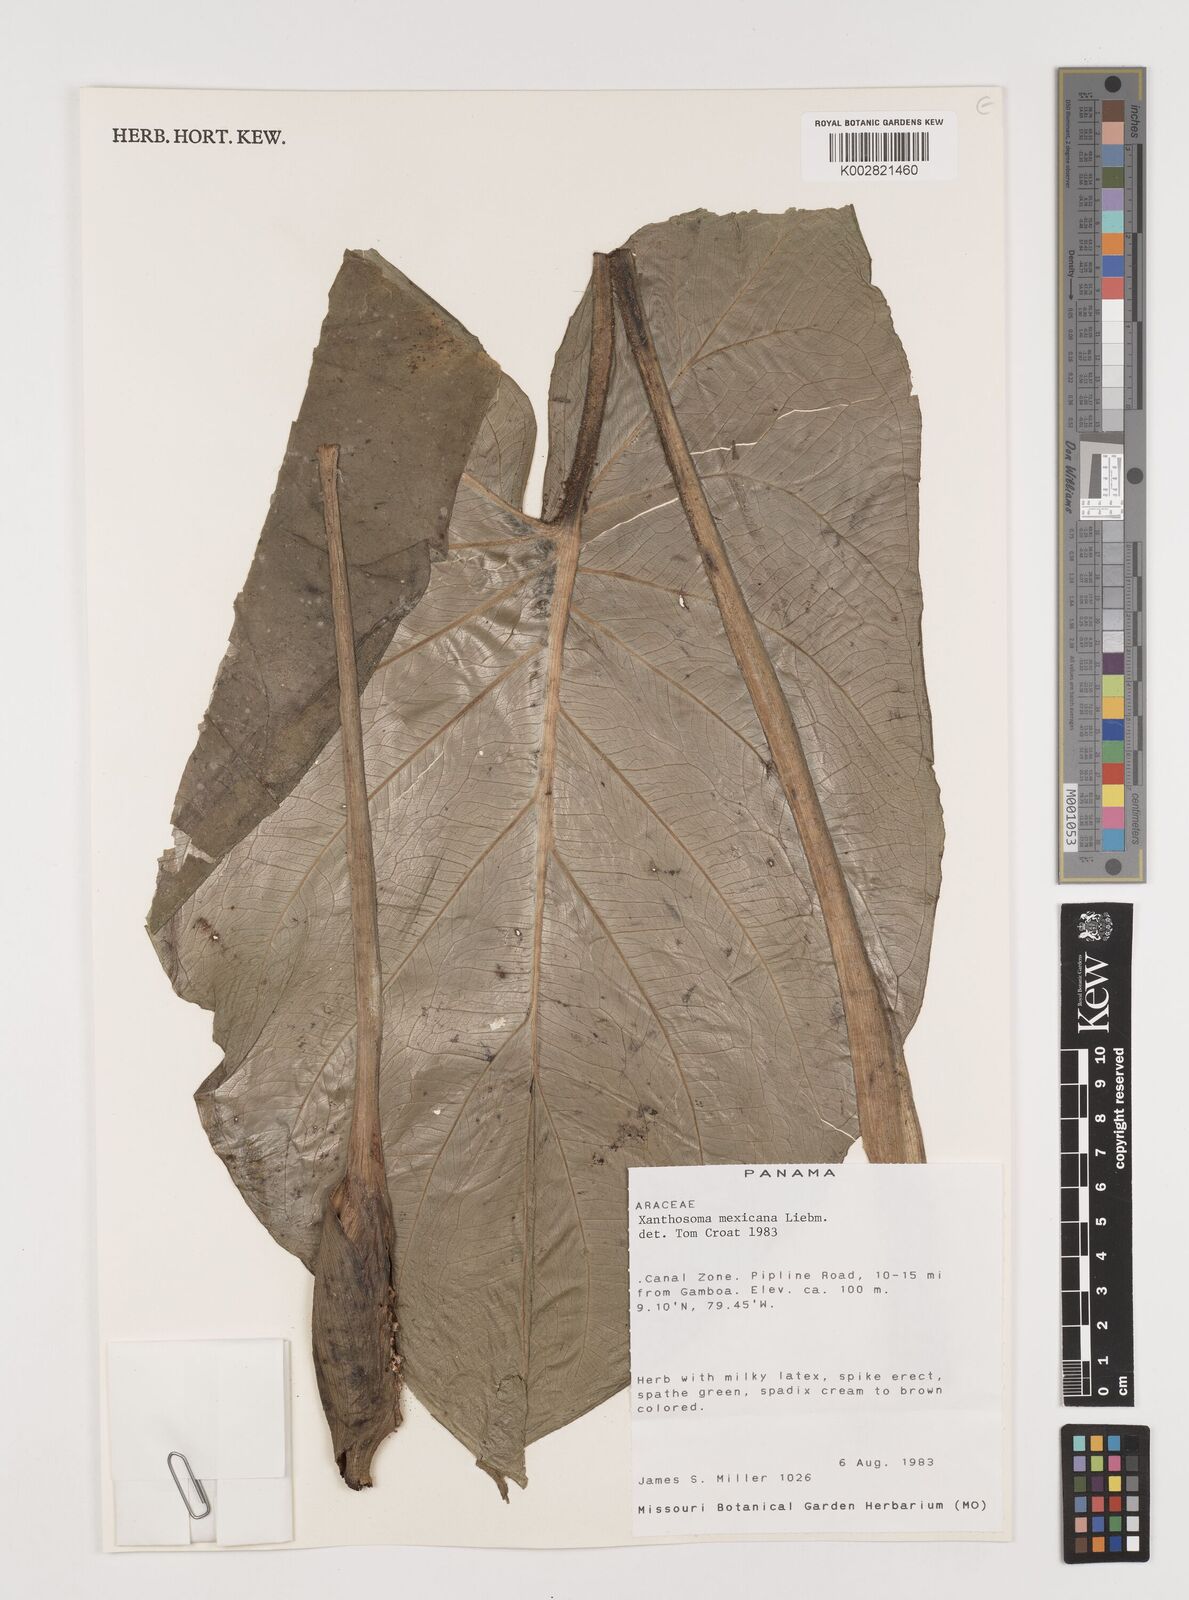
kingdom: Plantae
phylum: Tracheophyta
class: Liliopsida
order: Alismatales
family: Araceae
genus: Xanthosoma
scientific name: Xanthosoma mexicanum
